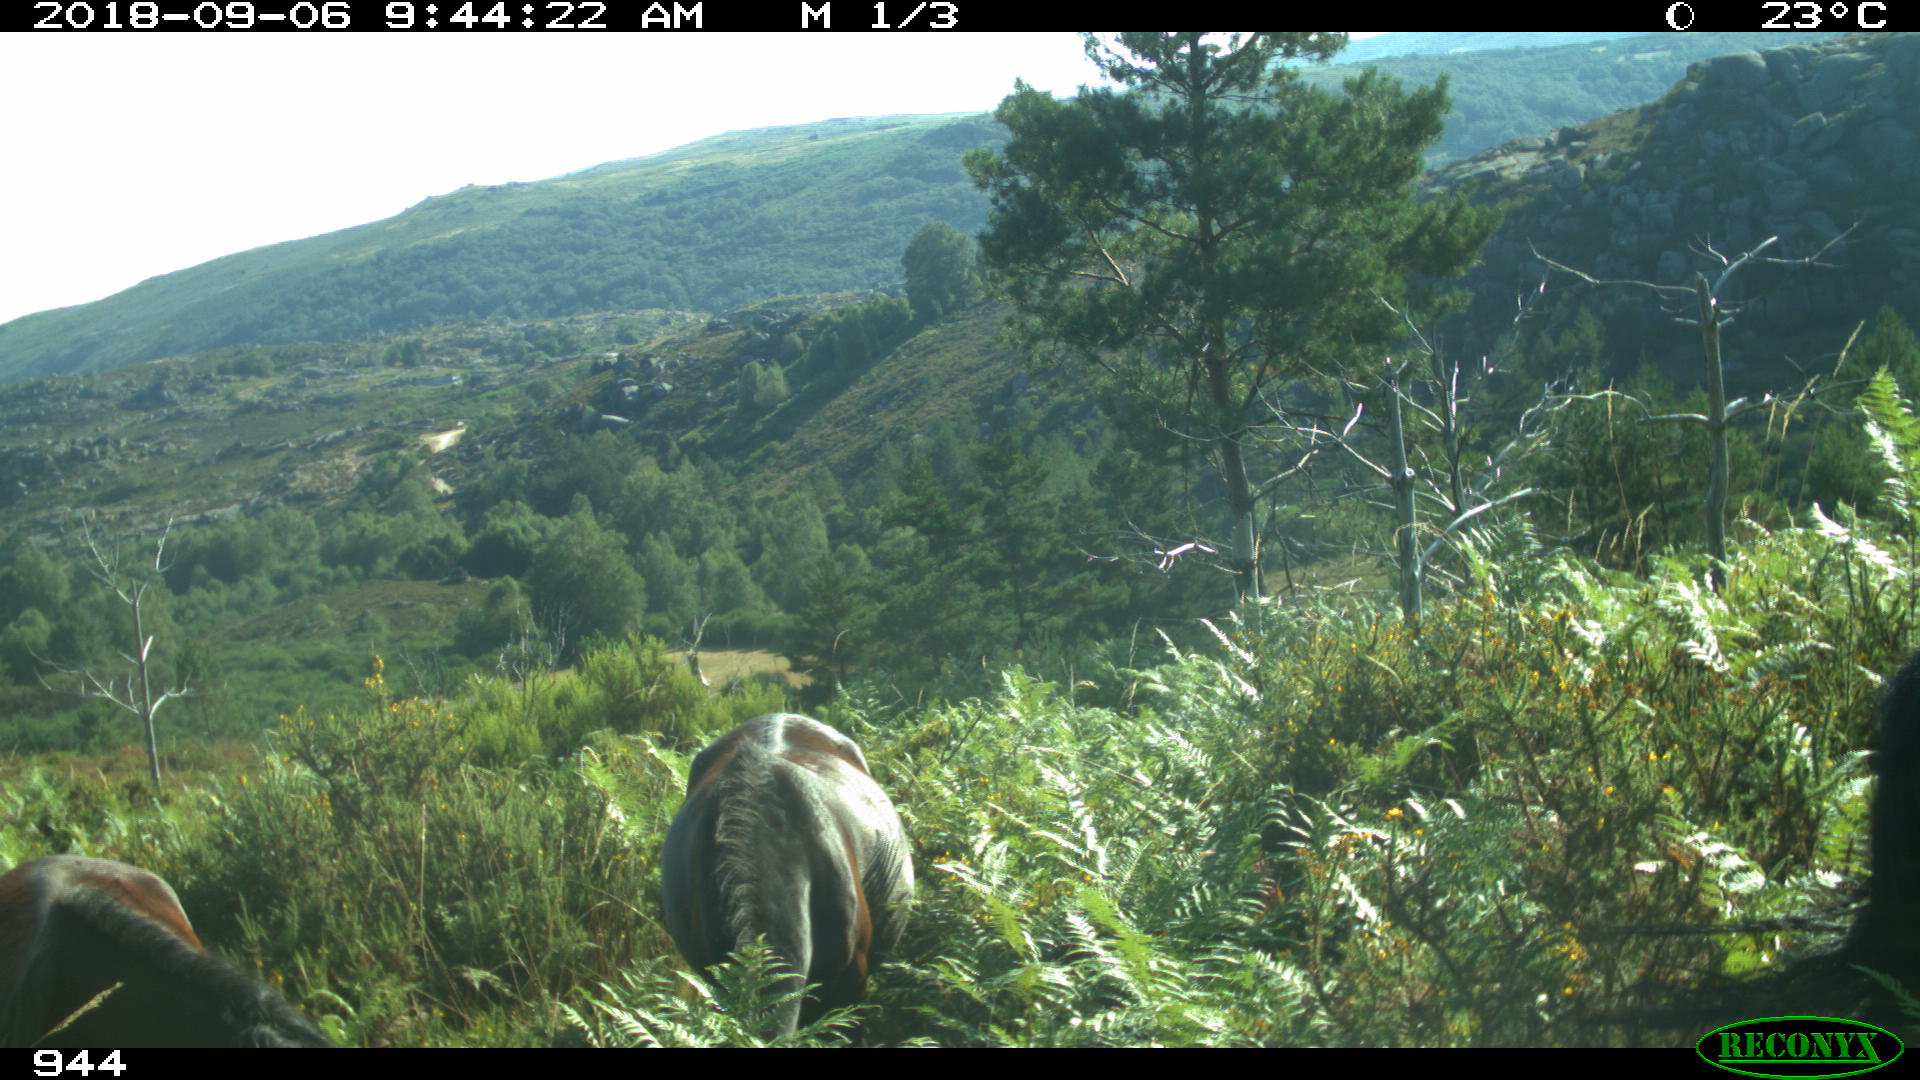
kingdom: Animalia
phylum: Chordata
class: Mammalia
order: Perissodactyla
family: Equidae
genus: Equus
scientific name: Equus caballus
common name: Horse
